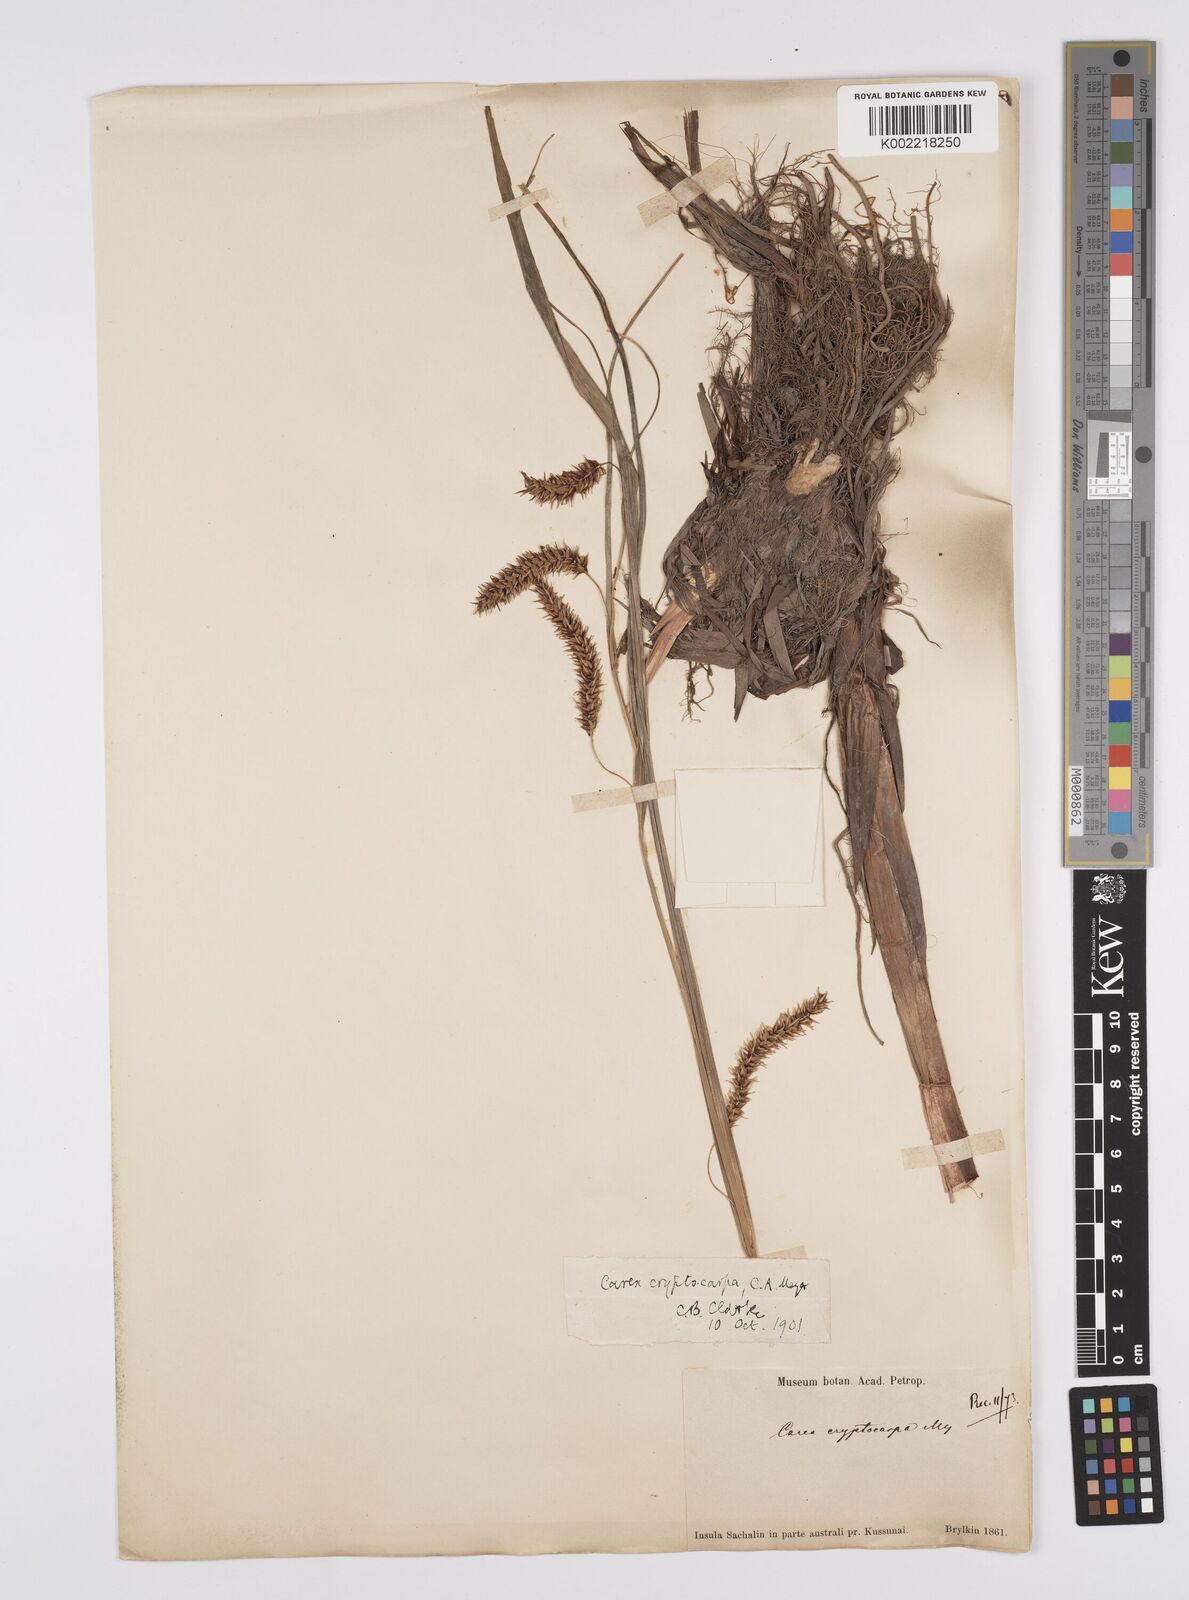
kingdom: Plantae
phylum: Tracheophyta
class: Liliopsida
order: Poales
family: Cyperaceae
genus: Carex
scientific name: Carex lyngbyei
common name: Lyngbye's sedge
